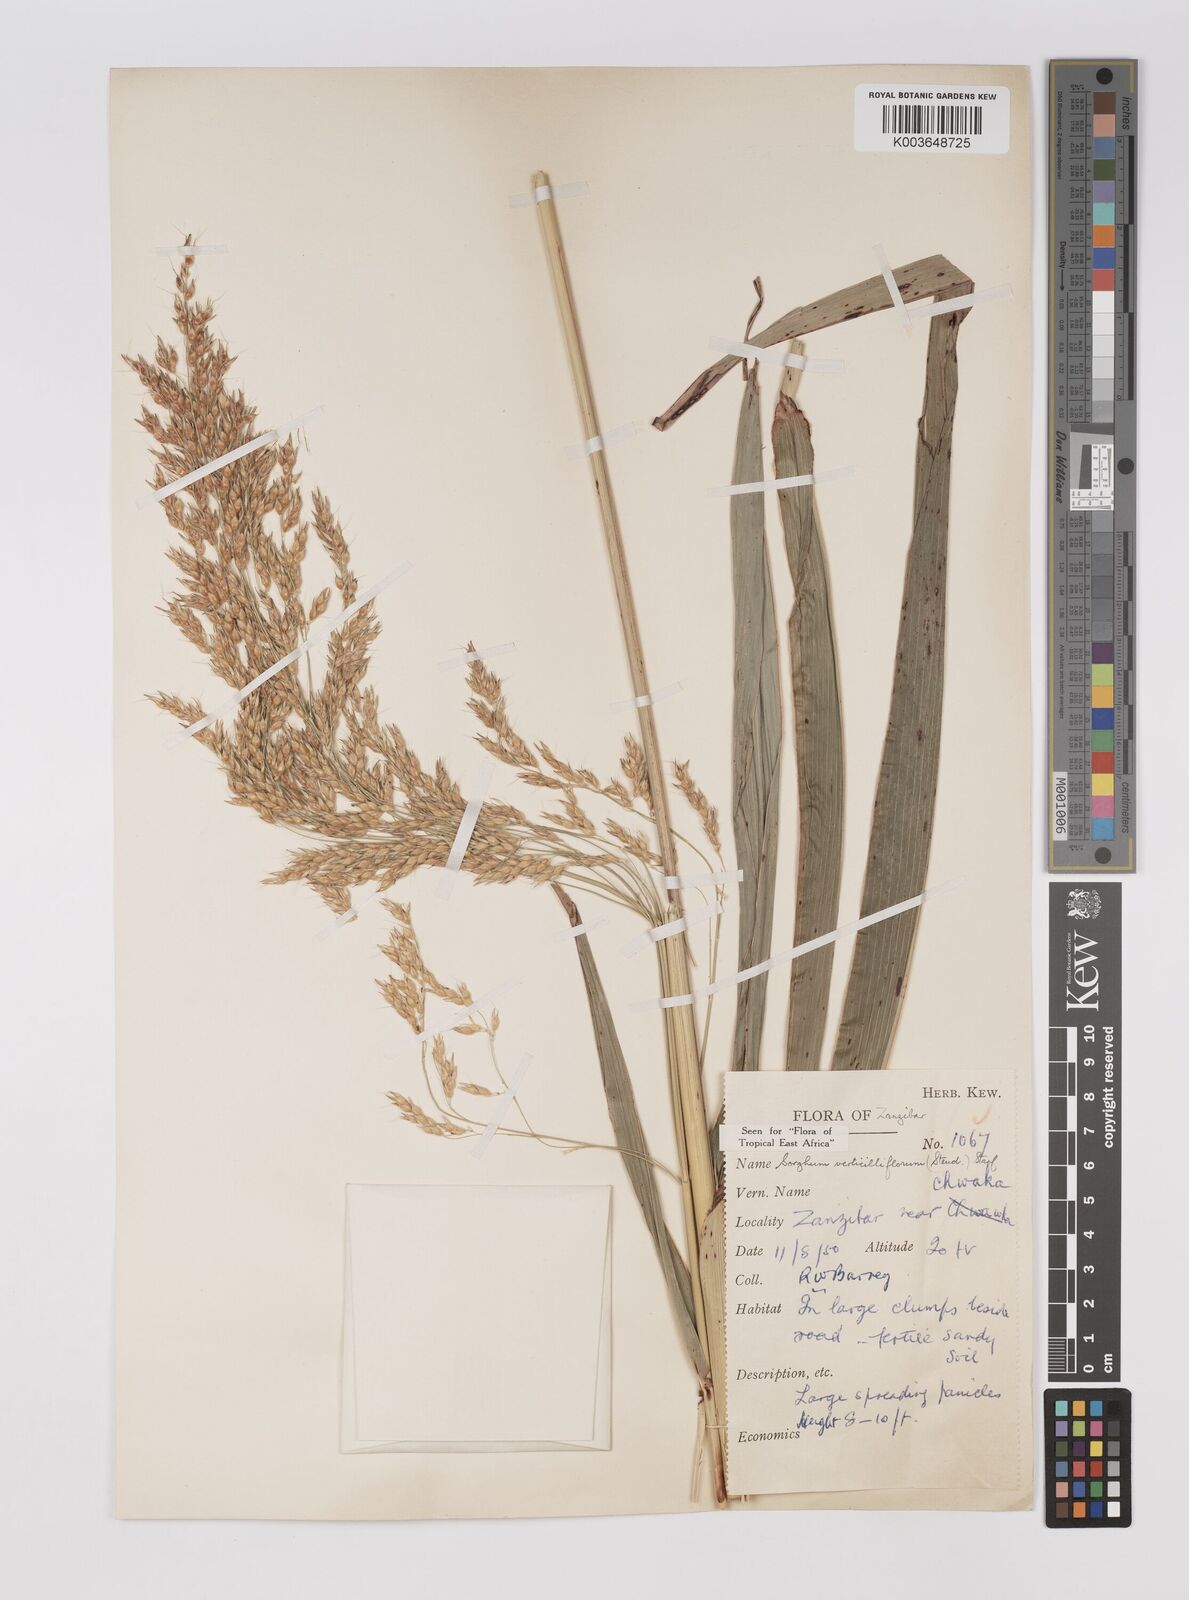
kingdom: Plantae
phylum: Tracheophyta
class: Liliopsida
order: Poales
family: Poaceae
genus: Sorghum
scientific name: Sorghum arundinaceum
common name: Sorghum
